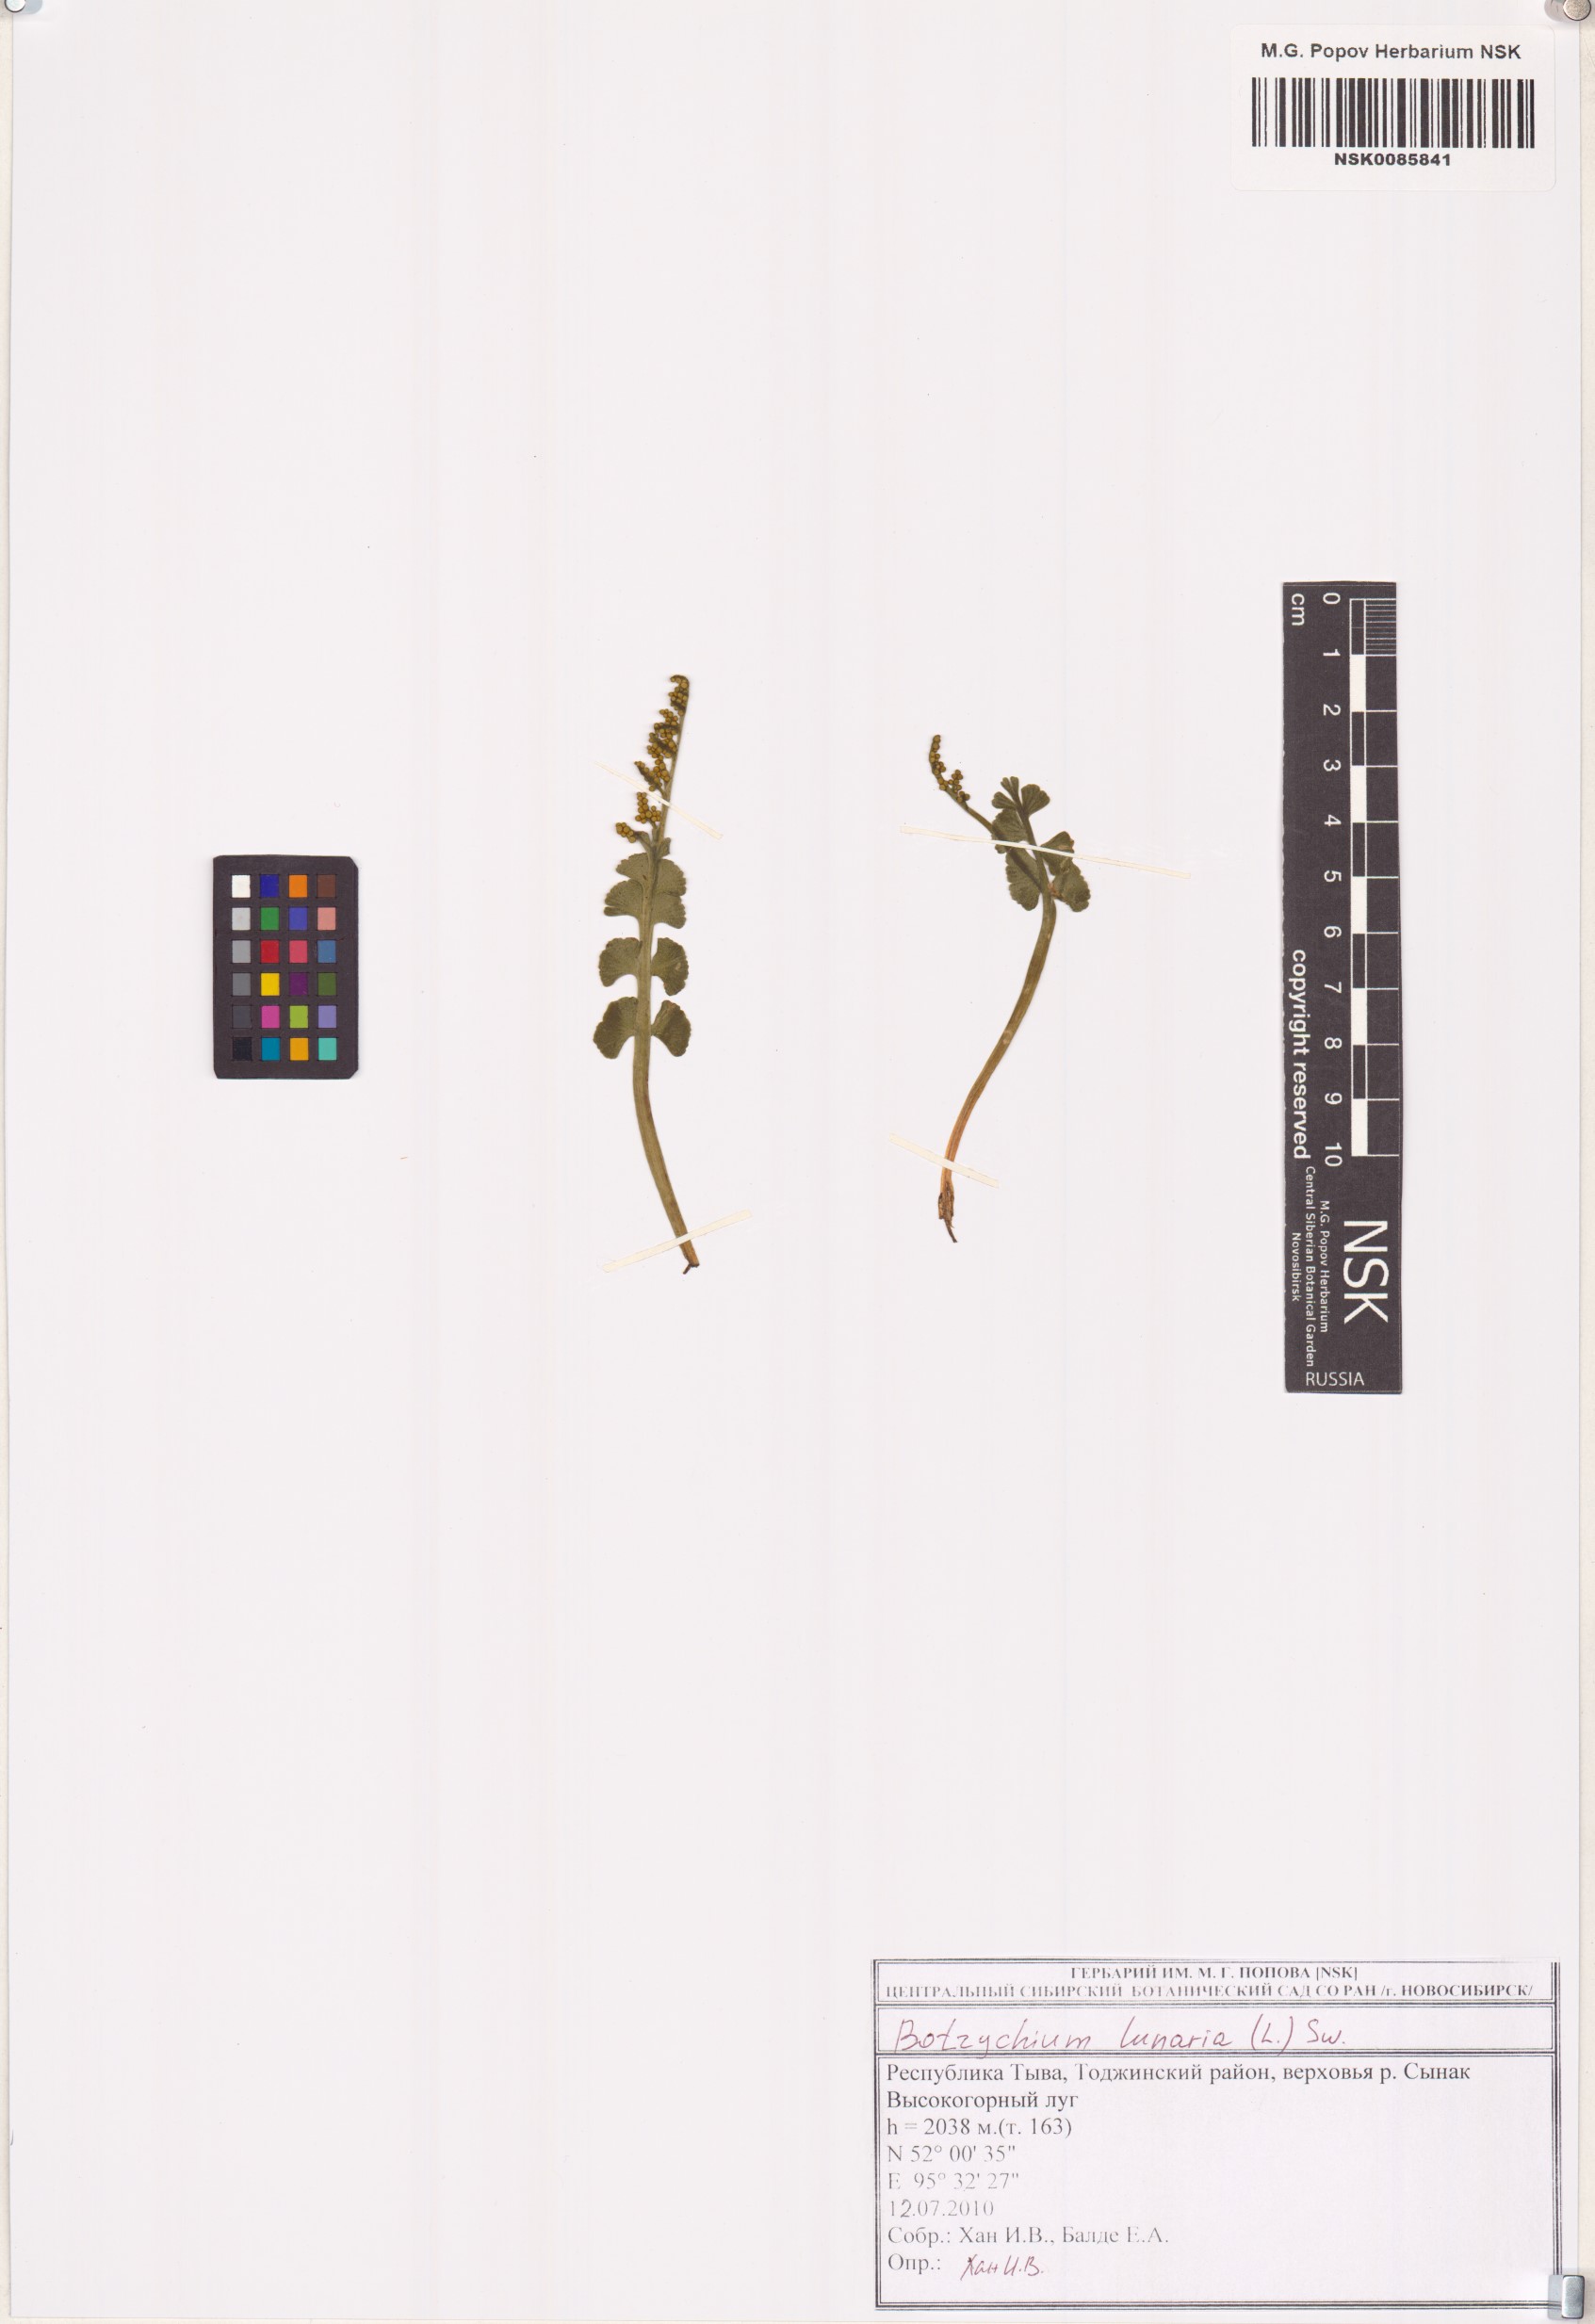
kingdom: Plantae
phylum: Tracheophyta
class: Polypodiopsida
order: Ophioglossales
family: Ophioglossaceae
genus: Botrychium
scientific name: Botrychium lunaria
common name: Moonwort
